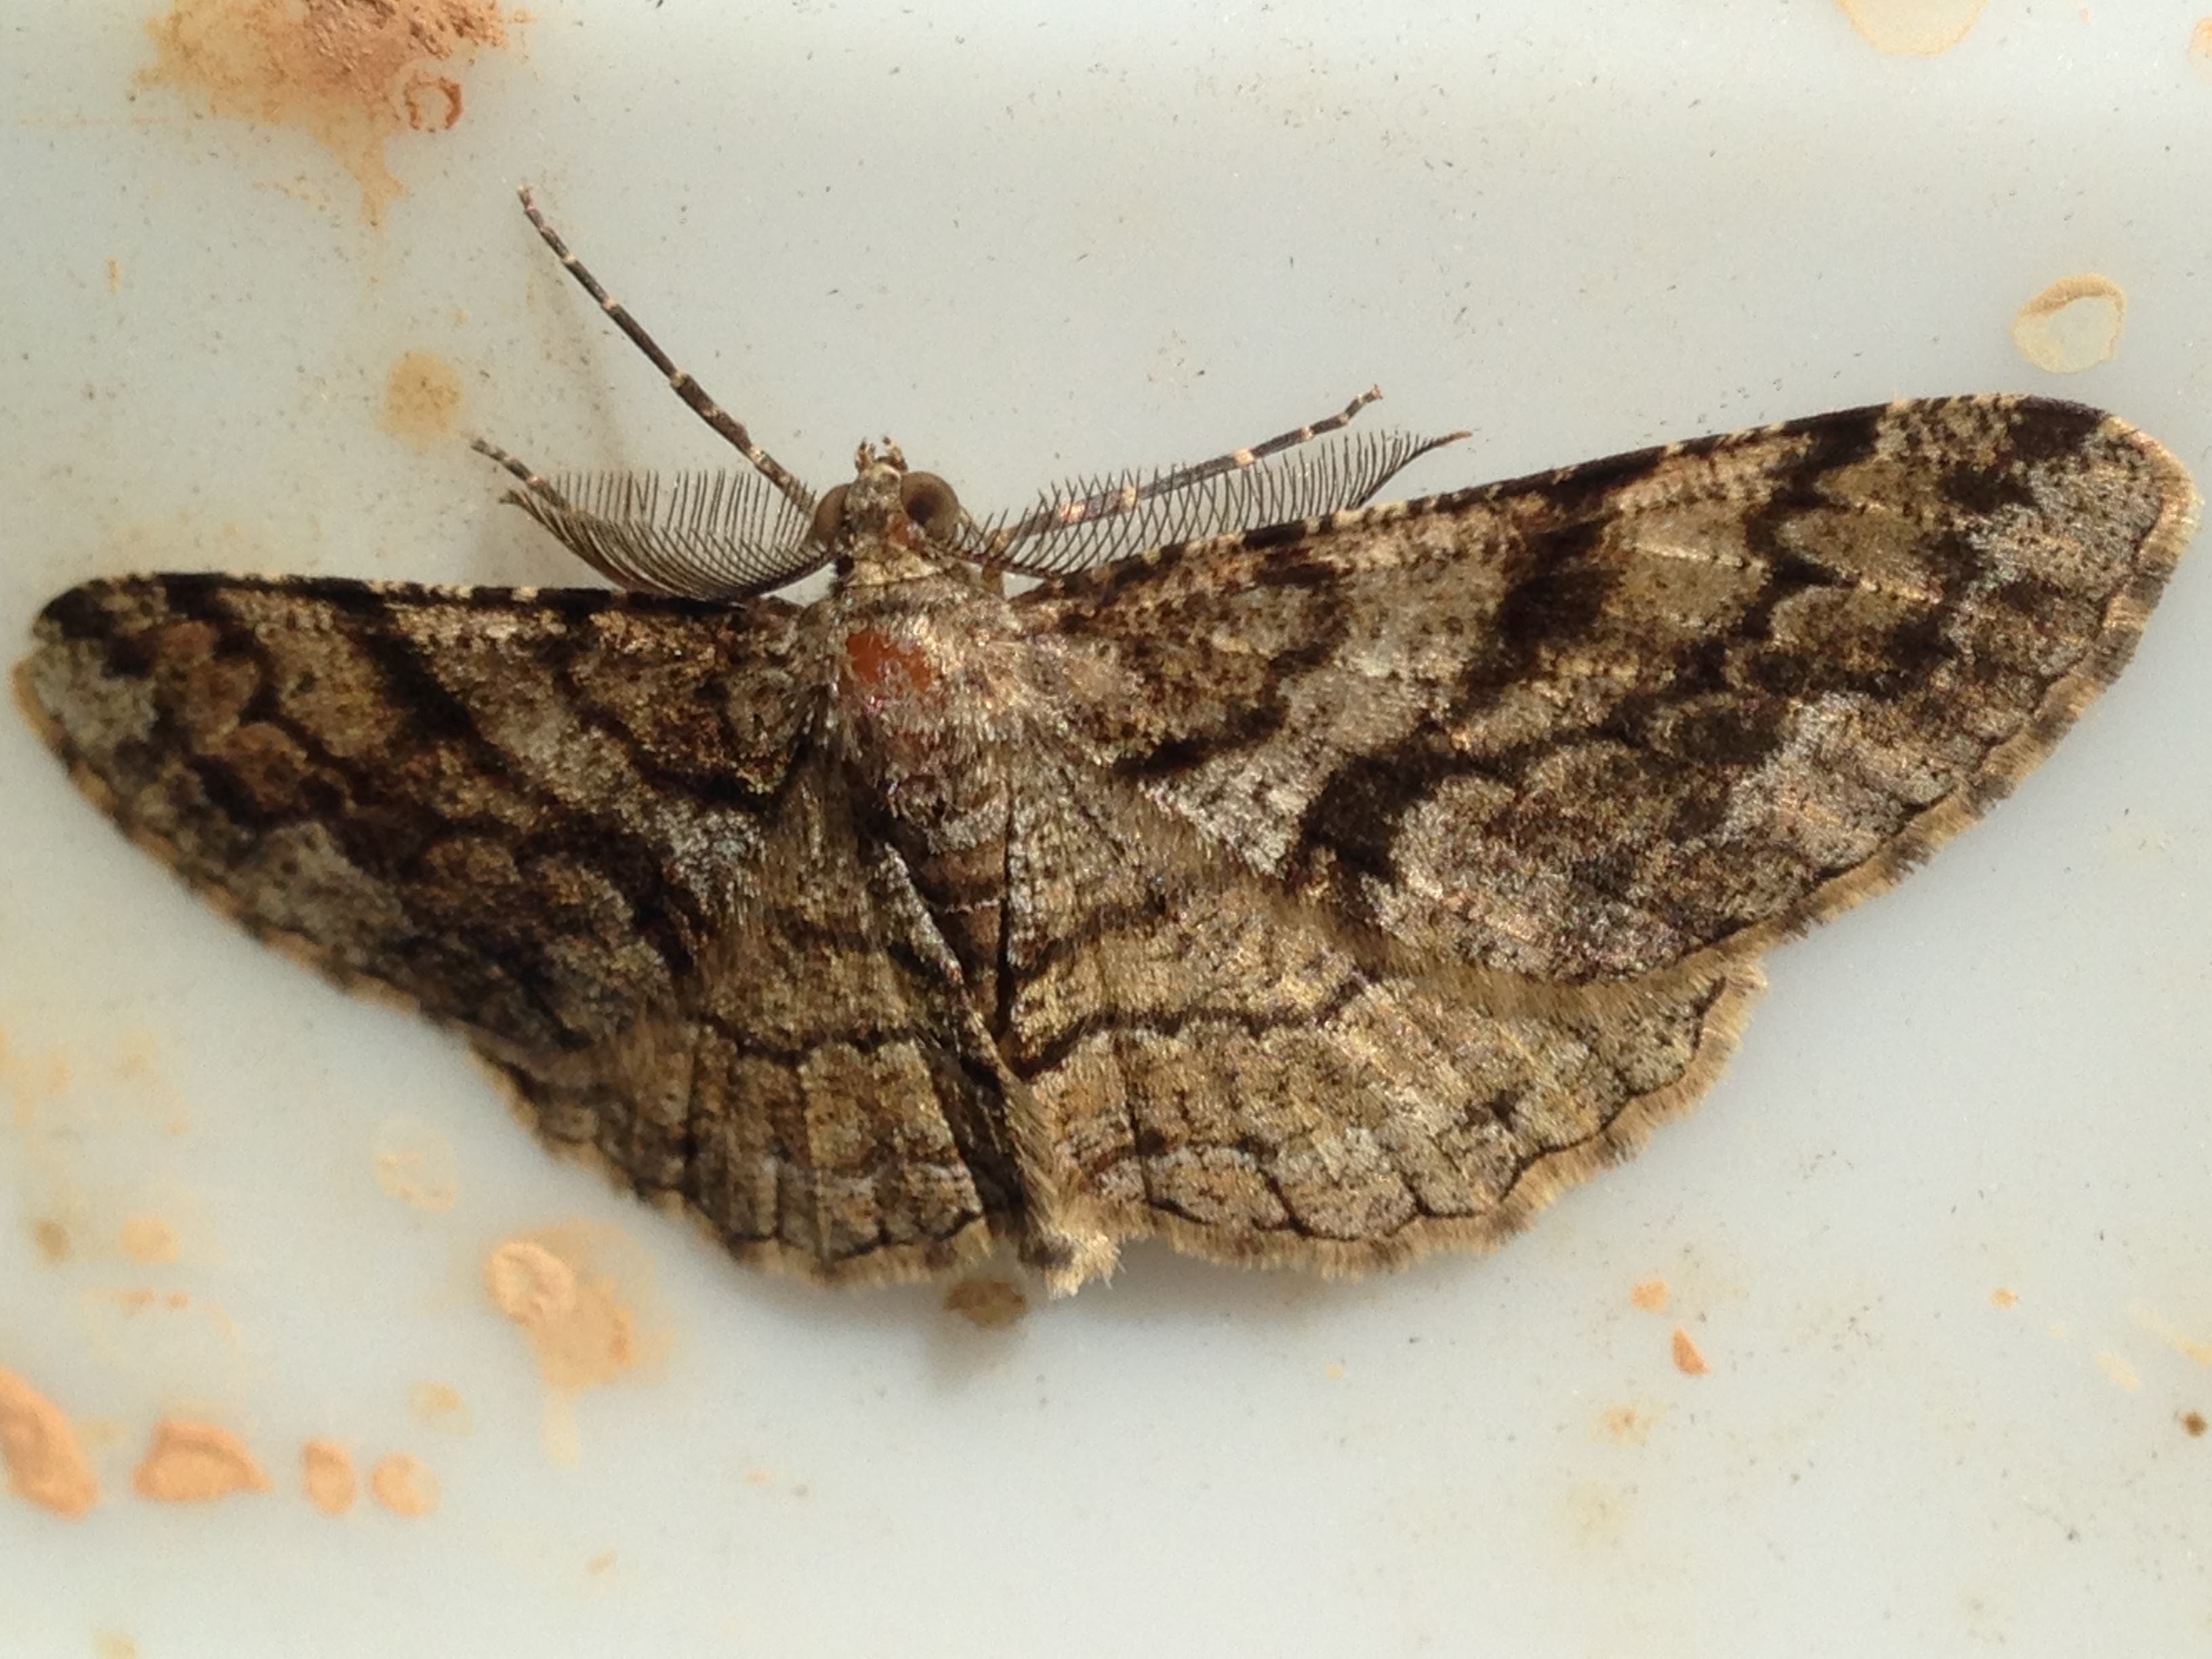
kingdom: Animalia
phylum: Arthropoda
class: Insecta
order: Lepidoptera
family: Geometridae
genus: Peribatodes
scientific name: Peribatodes secundaria
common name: Feathered beauty
